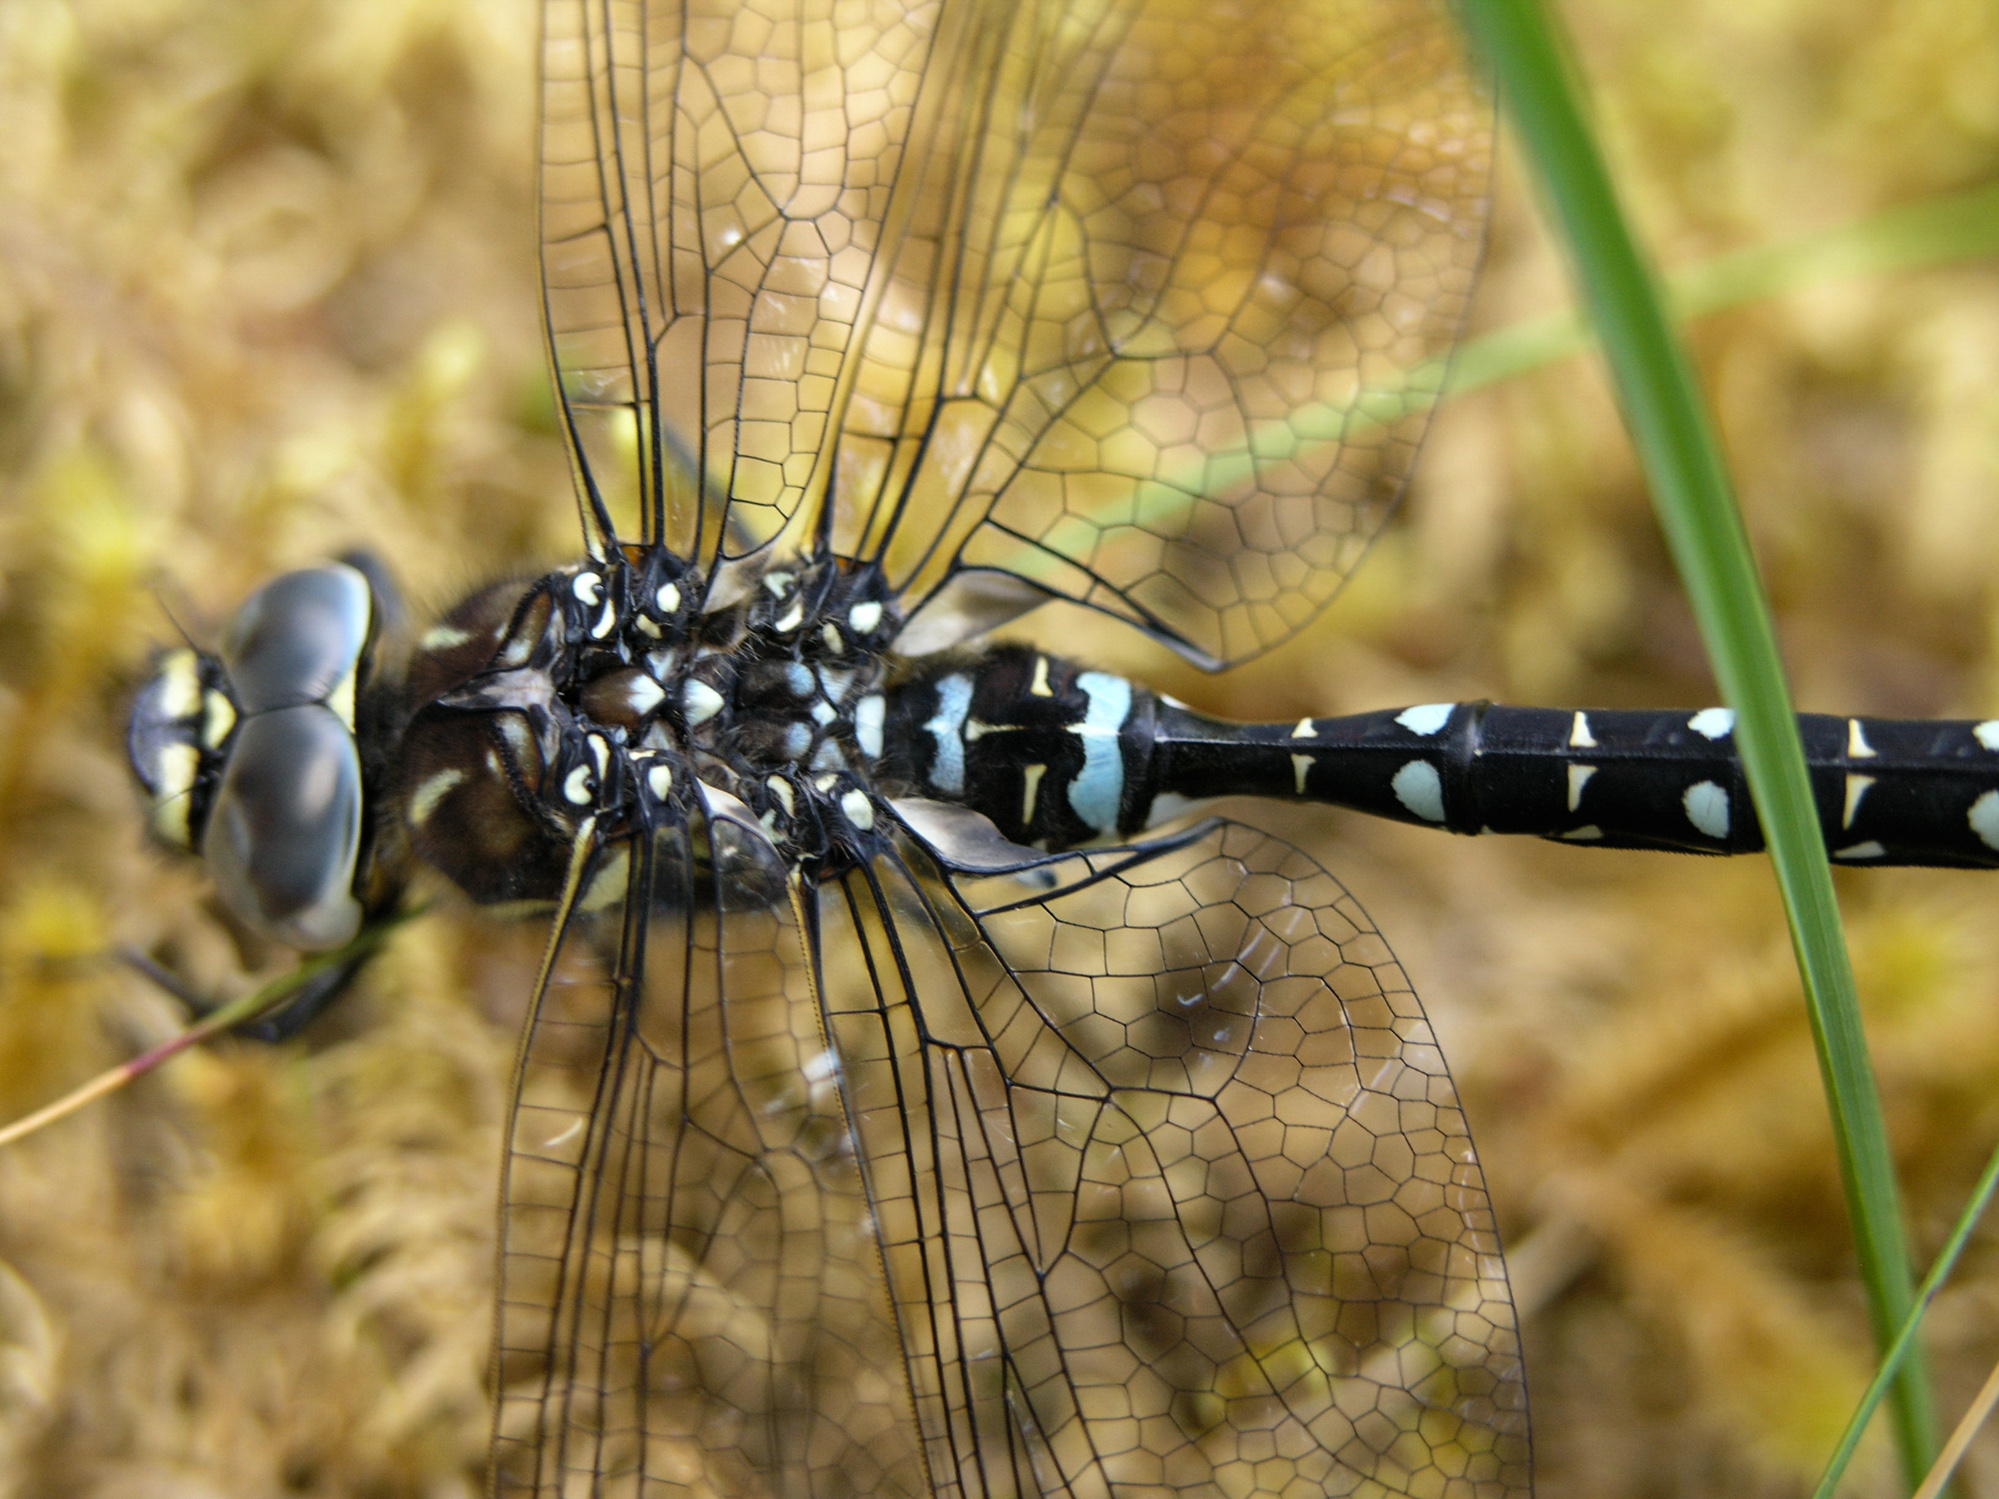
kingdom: Animalia
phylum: Arthropoda
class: Insecta
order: Odonata
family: Aeshnidae
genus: Aeshna
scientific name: Aeshna juncea
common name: Moorland hawker
